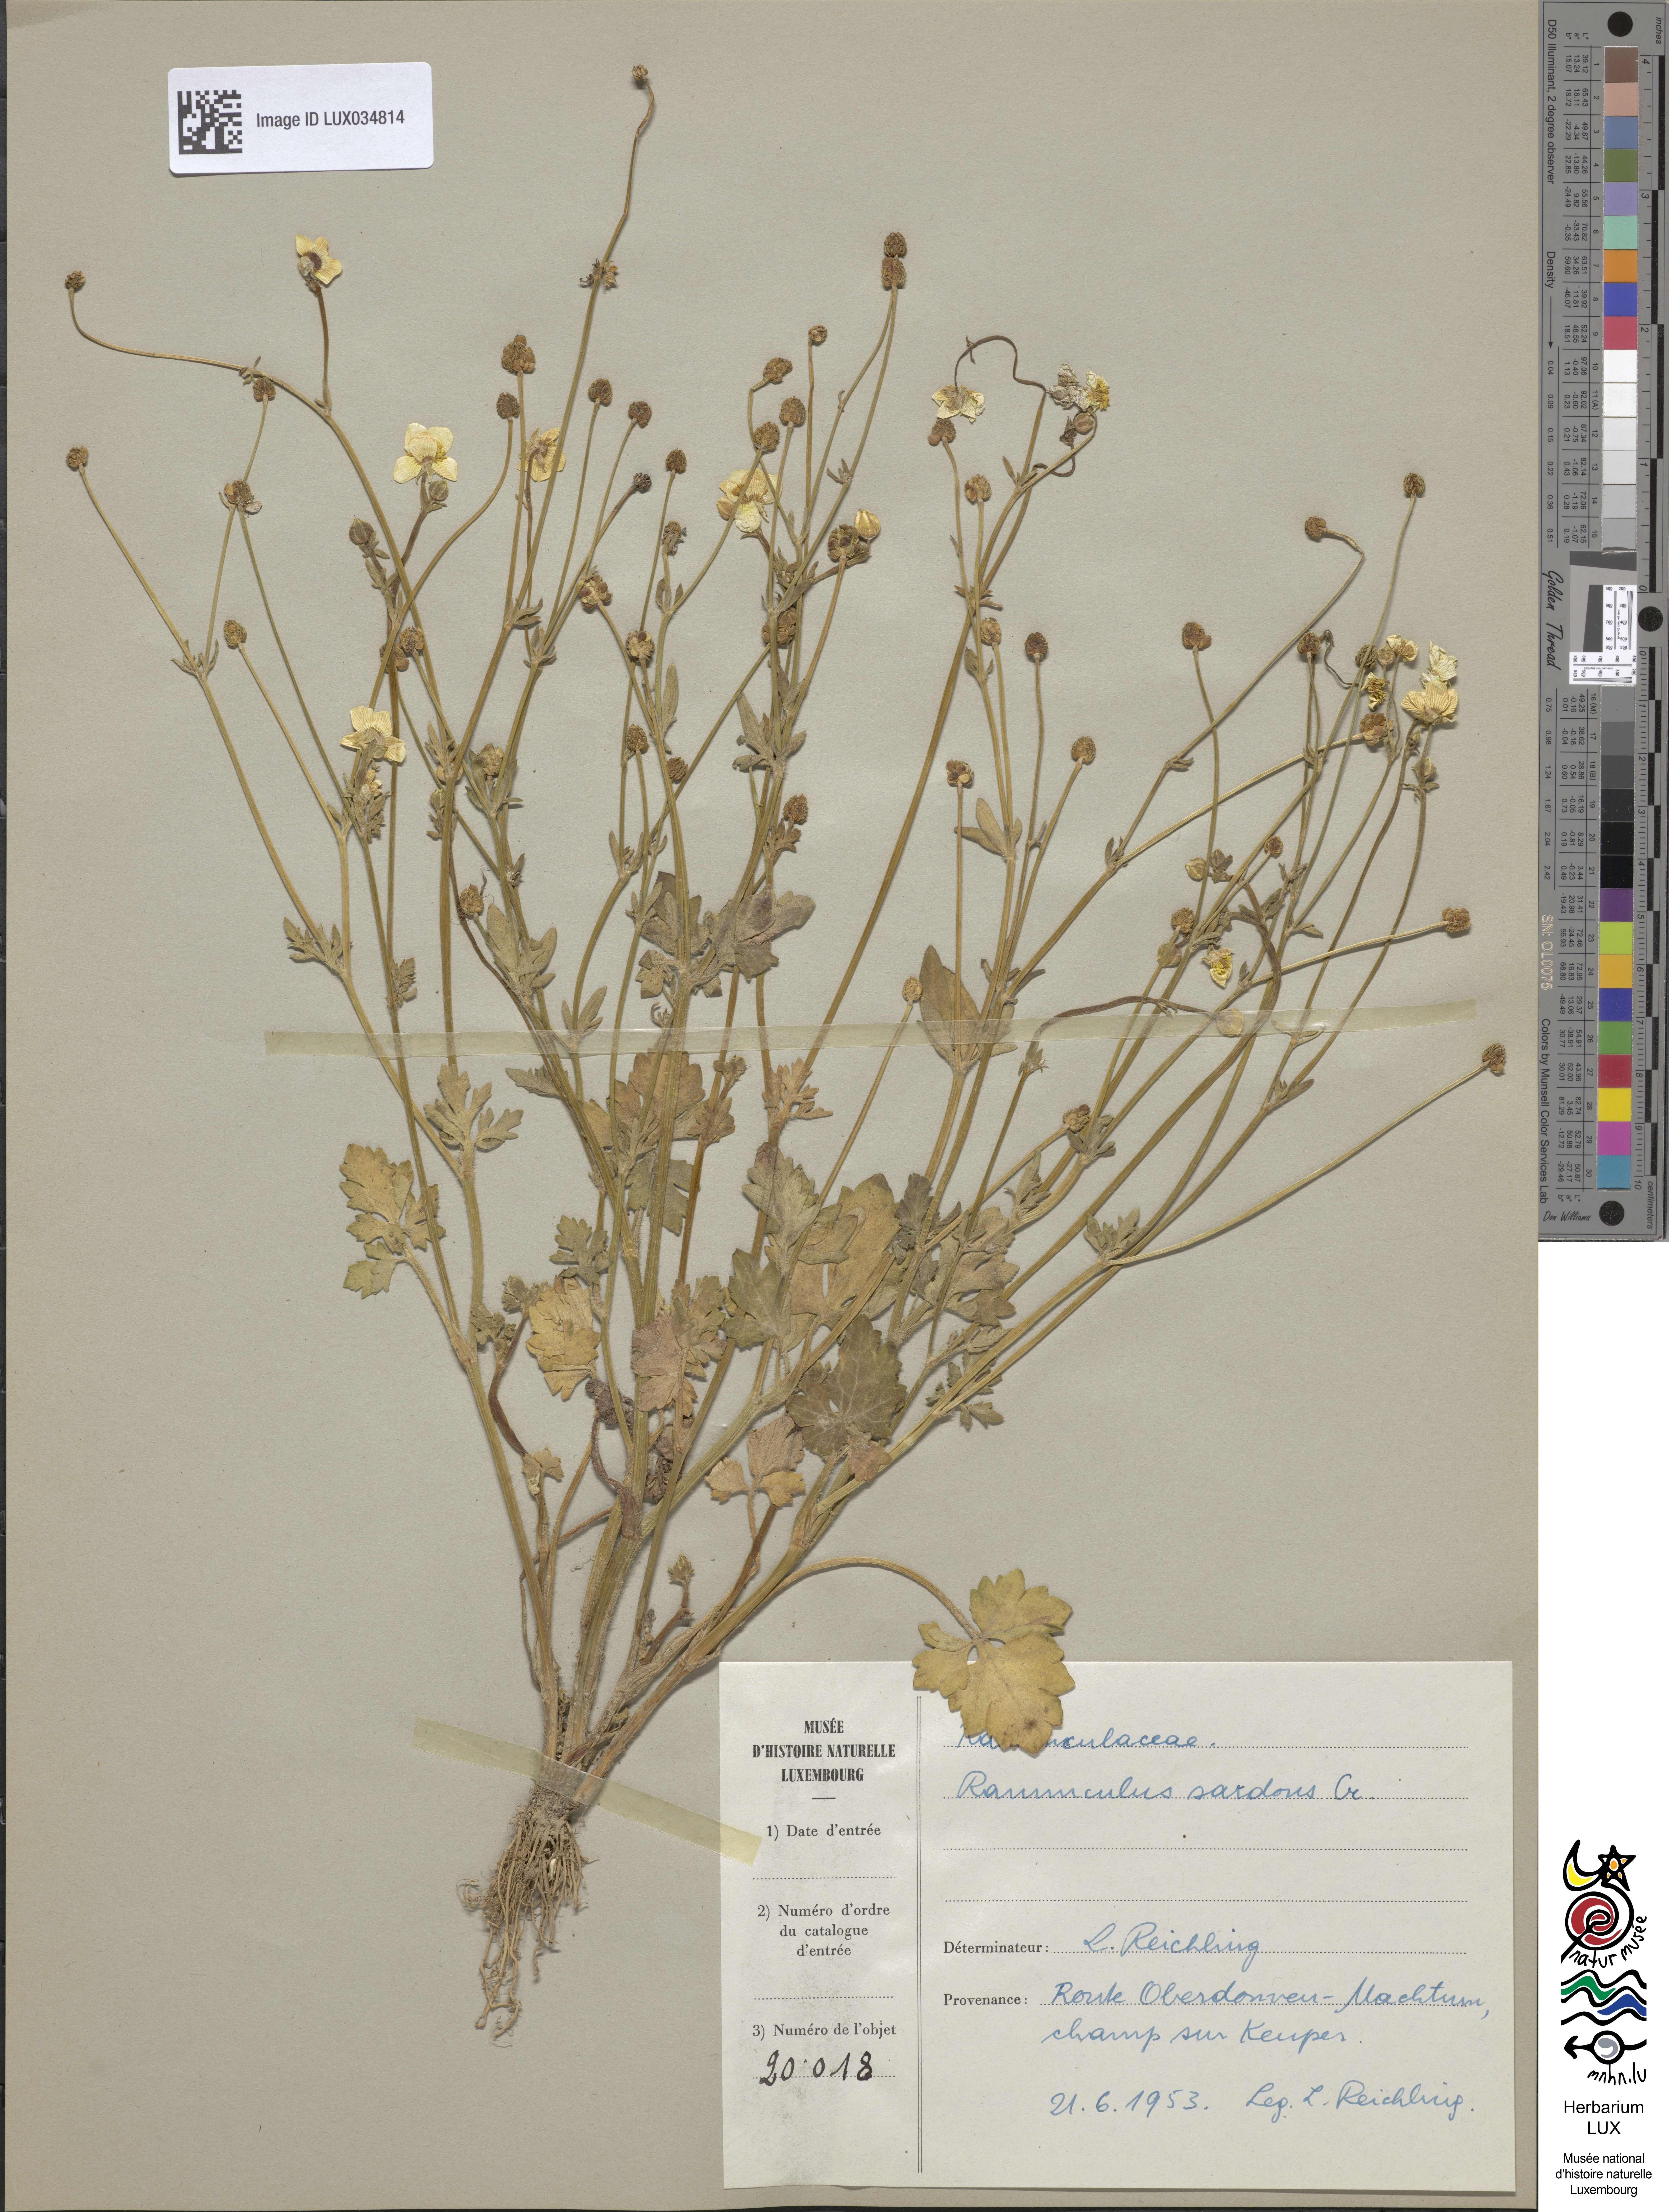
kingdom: Plantae
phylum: Tracheophyta
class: Magnoliopsida
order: Ranunculales
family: Ranunculaceae
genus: Ranunculus
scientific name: Ranunculus sardous
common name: Hairy buttercup
